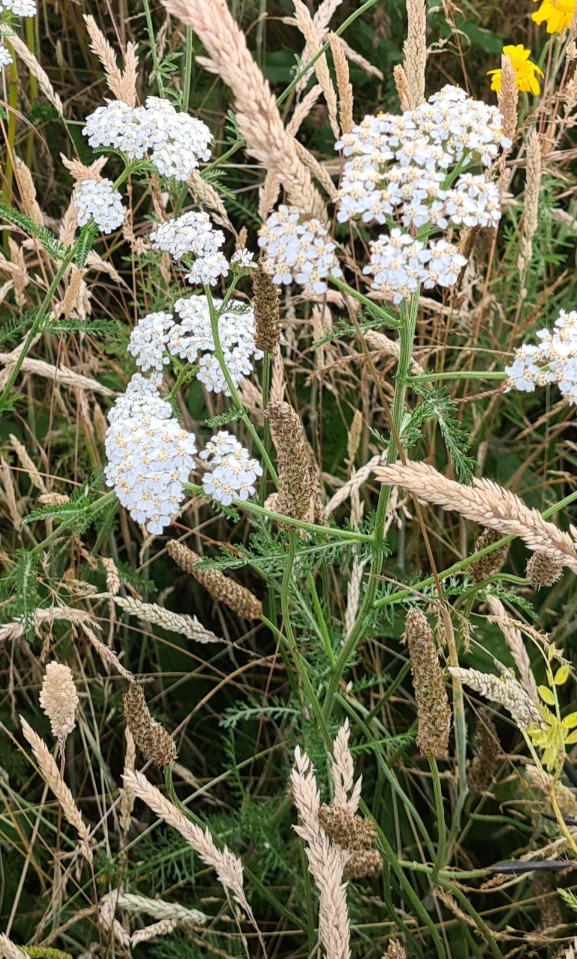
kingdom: Plantae
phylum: Tracheophyta
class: Magnoliopsida
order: Asterales
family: Asteraceae
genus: Achillea
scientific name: Achillea millefolium
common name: Almindelig røllike
